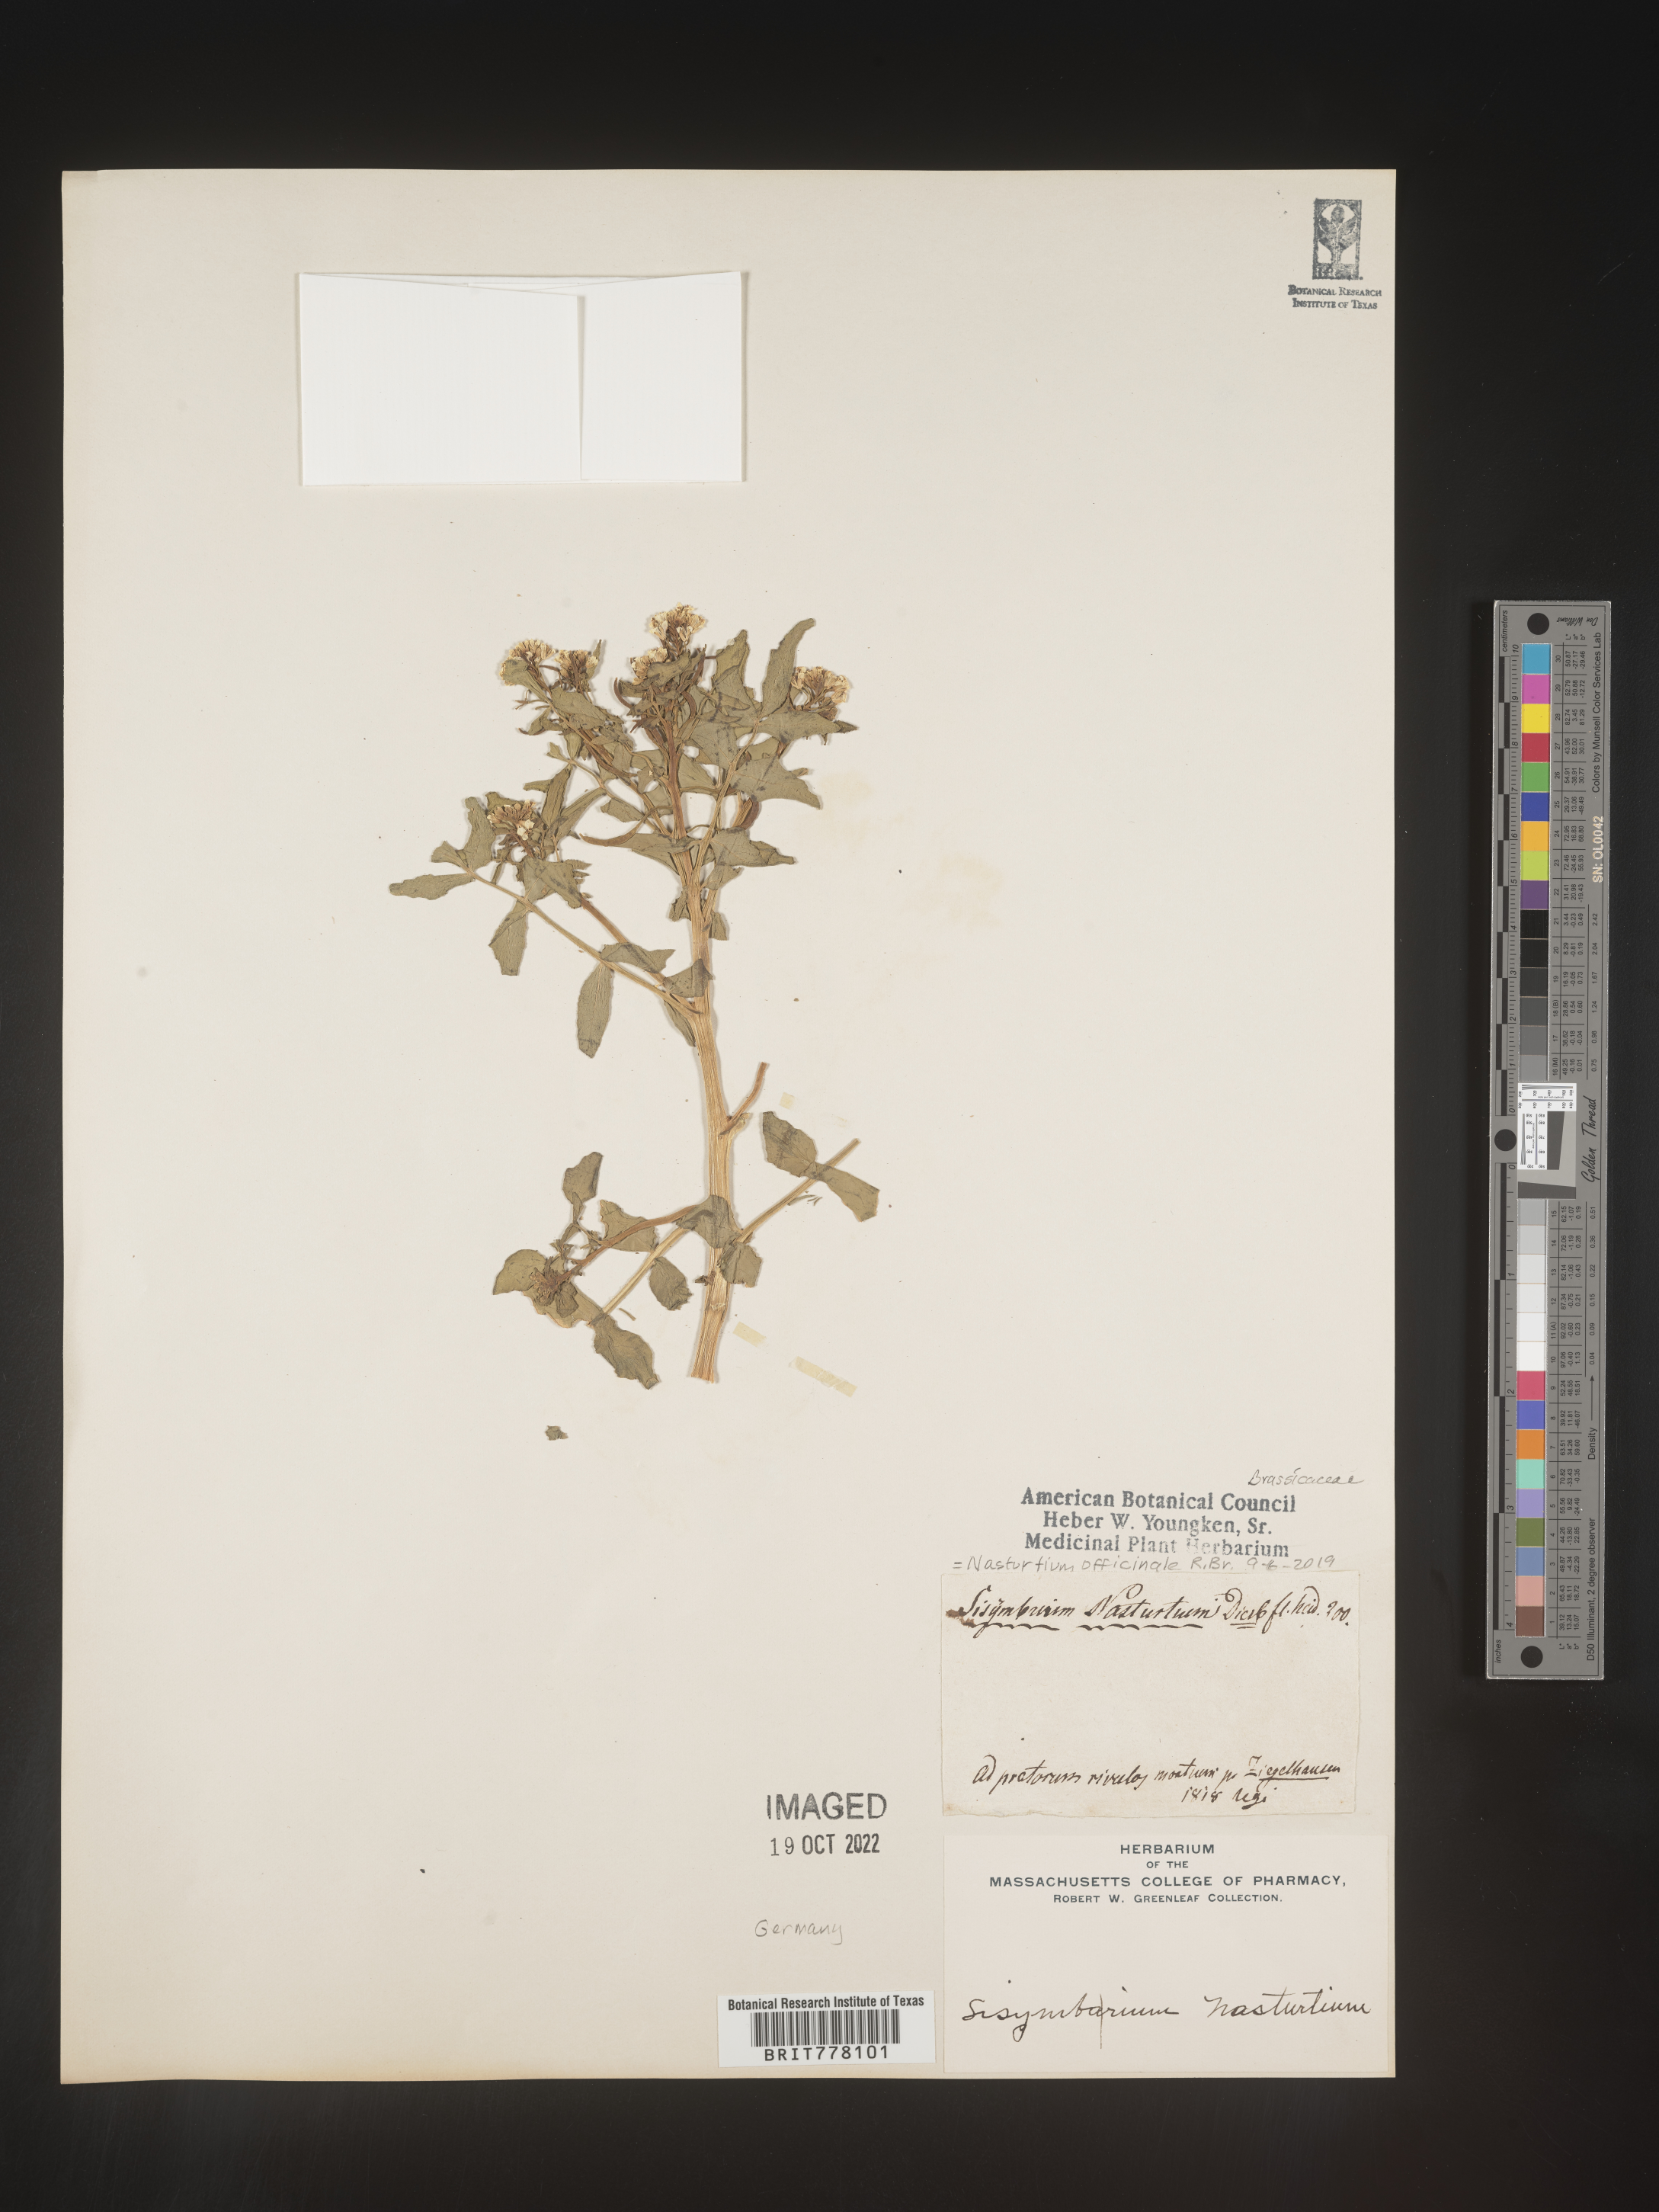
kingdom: Plantae
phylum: Tracheophyta
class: Magnoliopsida
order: Brassicales
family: Brassicaceae
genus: Nasturtium
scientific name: Nasturtium
